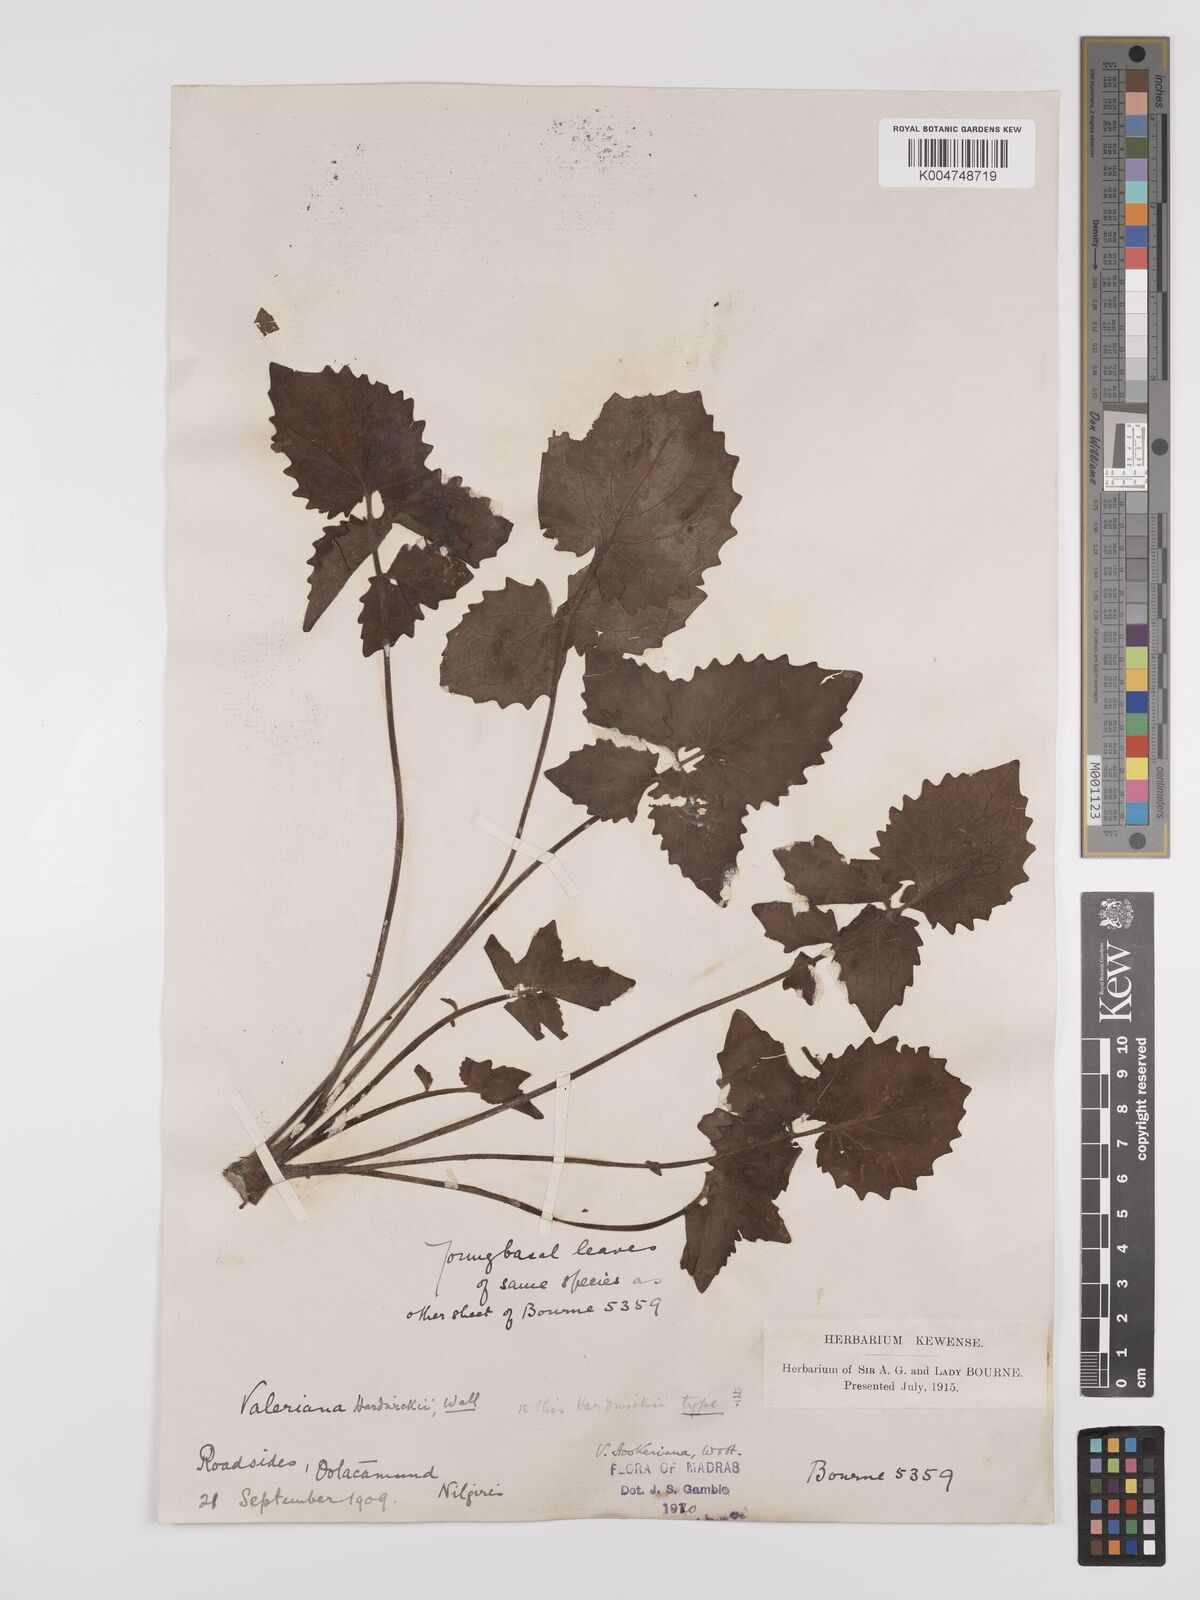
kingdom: Plantae
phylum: Tracheophyta
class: Magnoliopsida
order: Dipsacales
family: Caprifoliaceae
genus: Valeriana
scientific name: Valeriana hardwickei
